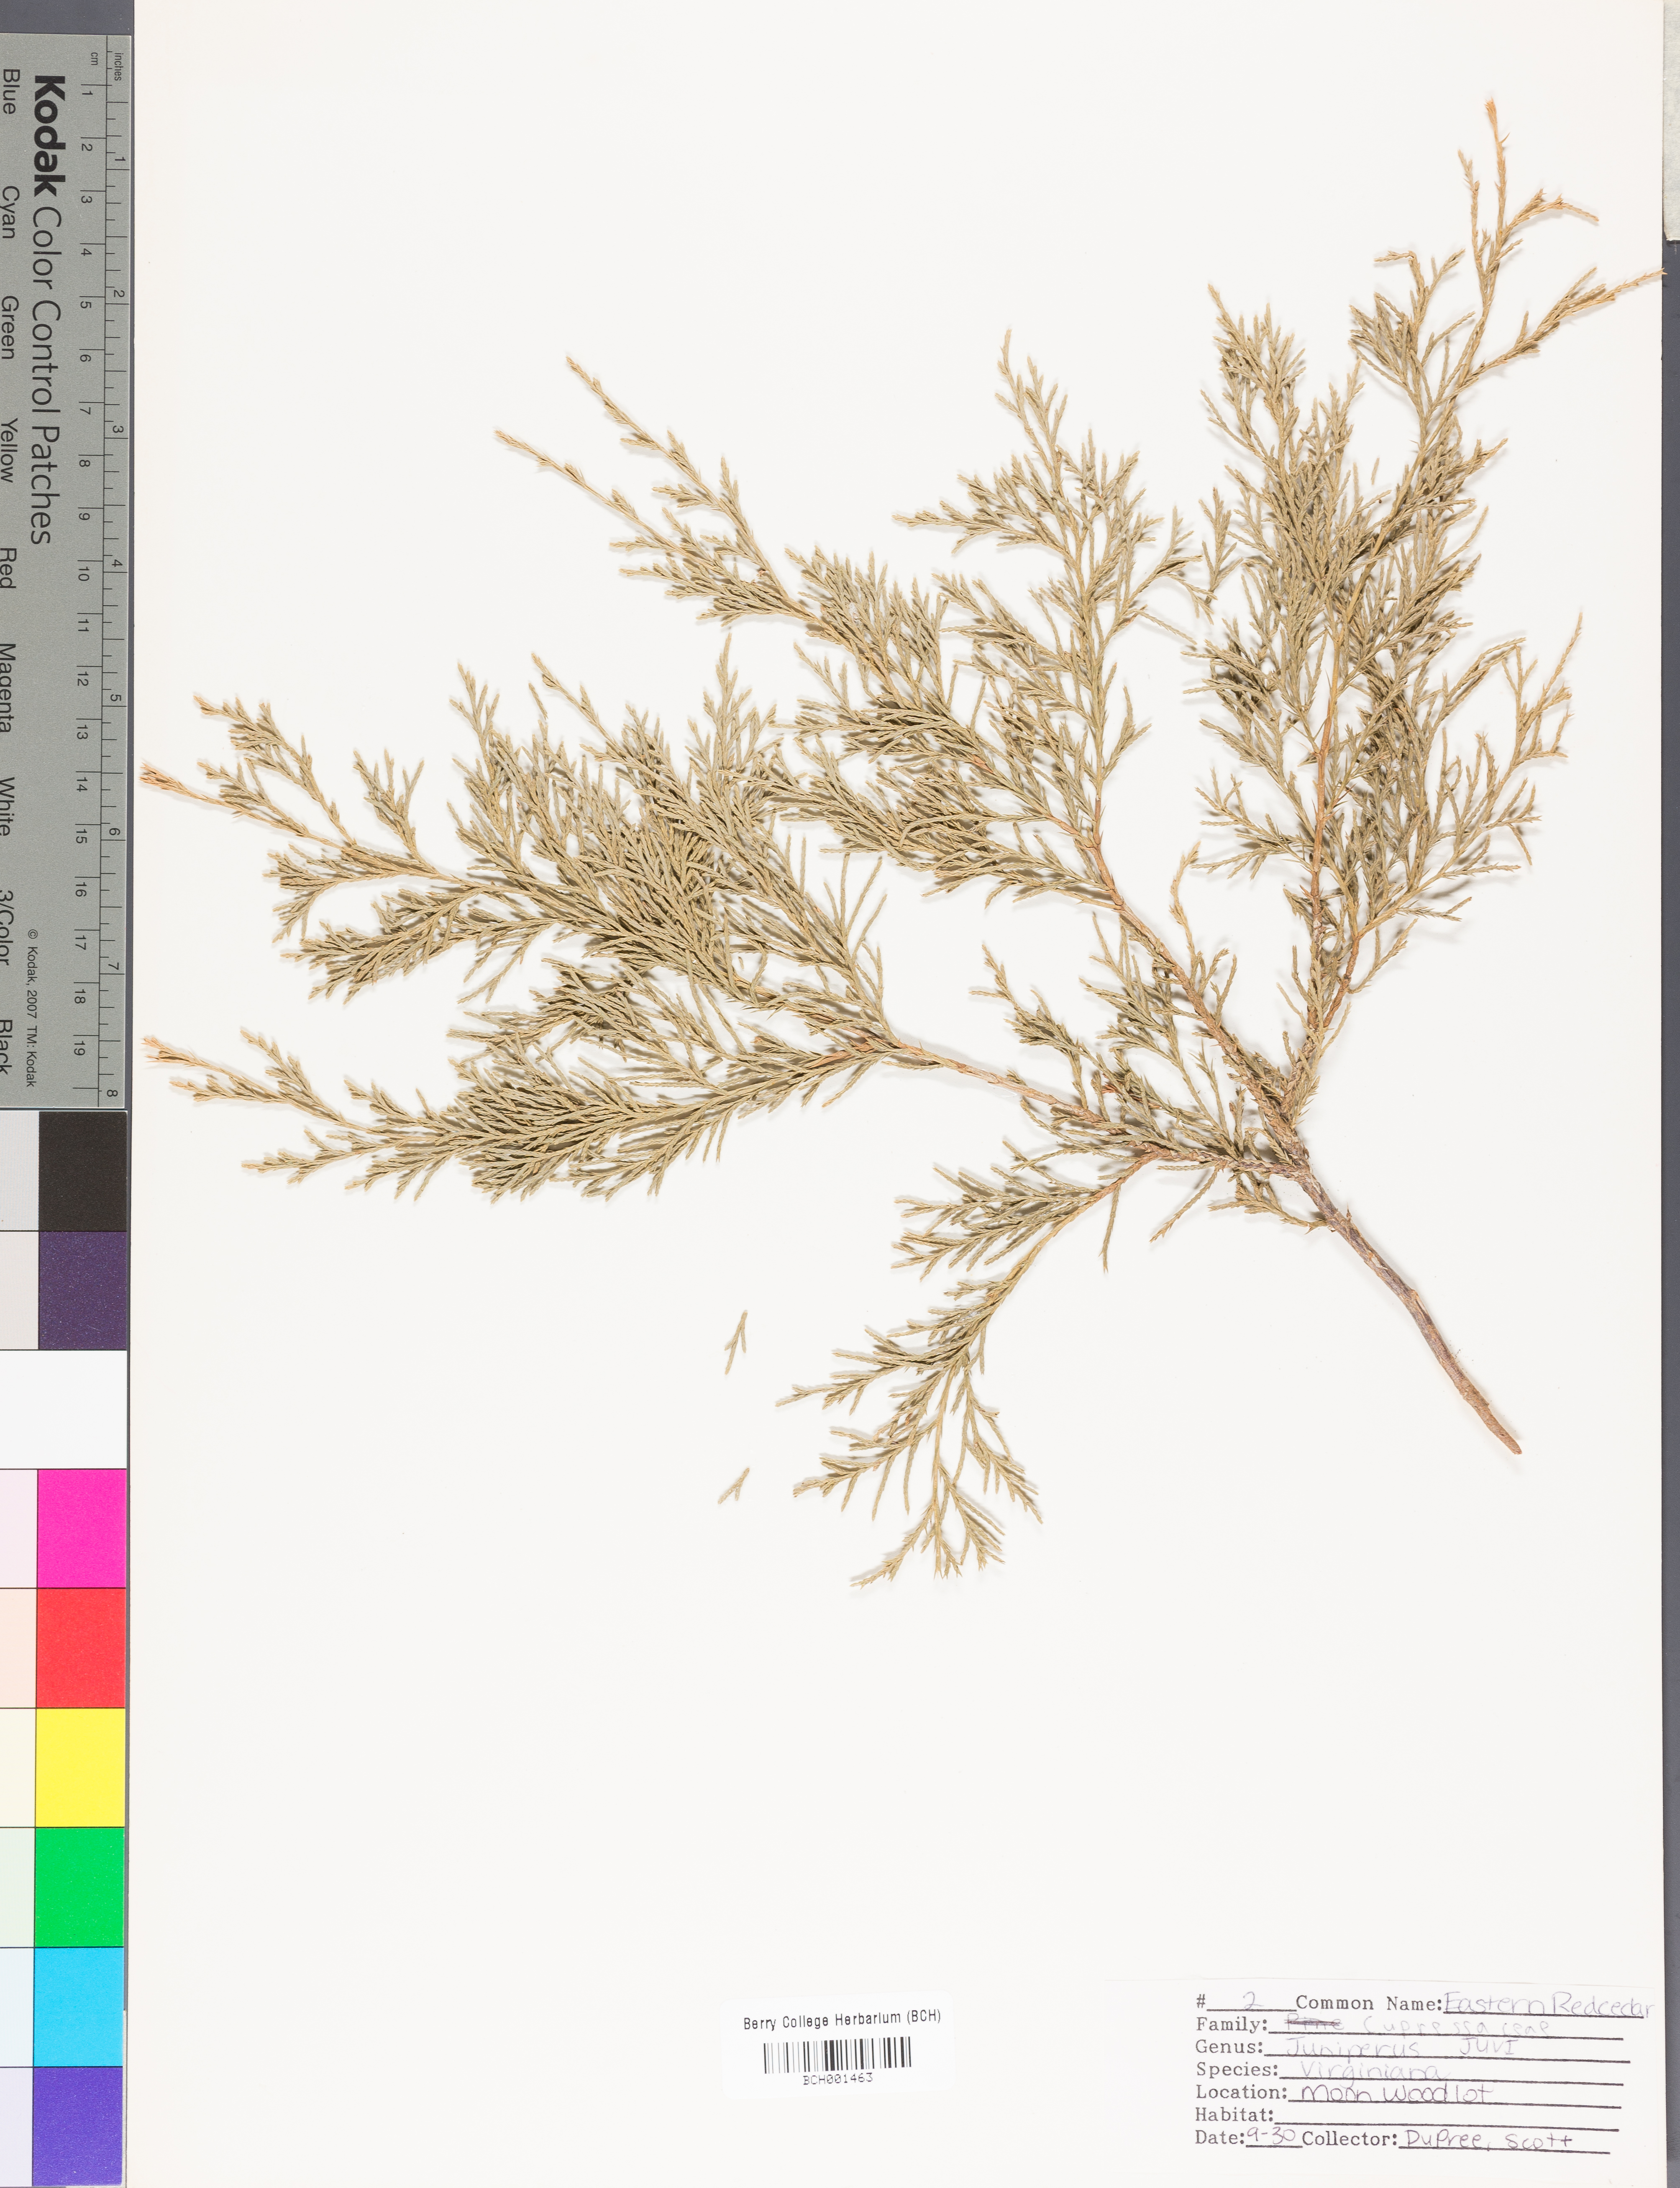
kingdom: Plantae
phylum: Tracheophyta
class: Pinopsida
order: Pinales
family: Cupressaceae
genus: Juniperus
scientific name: Juniperus virginiana
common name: Red juniper
